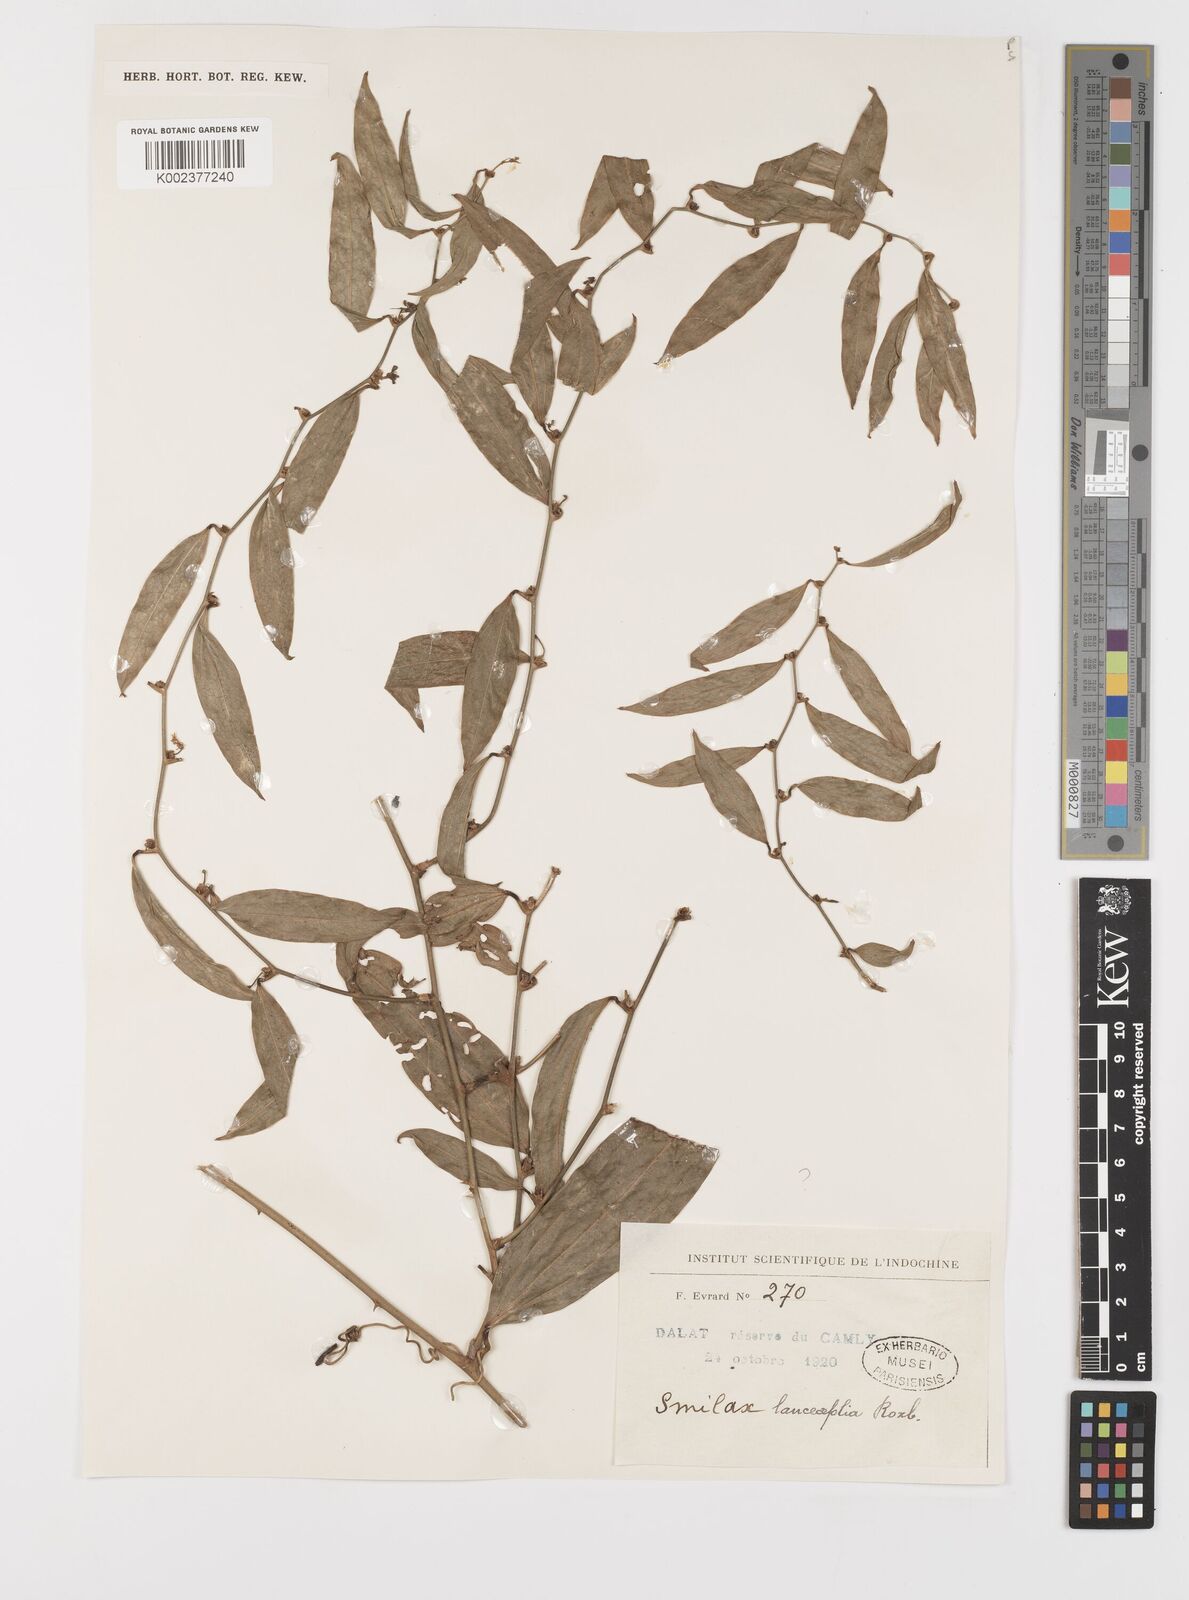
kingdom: Plantae
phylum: Tracheophyta
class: Liliopsida
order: Liliales
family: Smilacaceae
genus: Smilax
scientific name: Smilax lanceifolia
